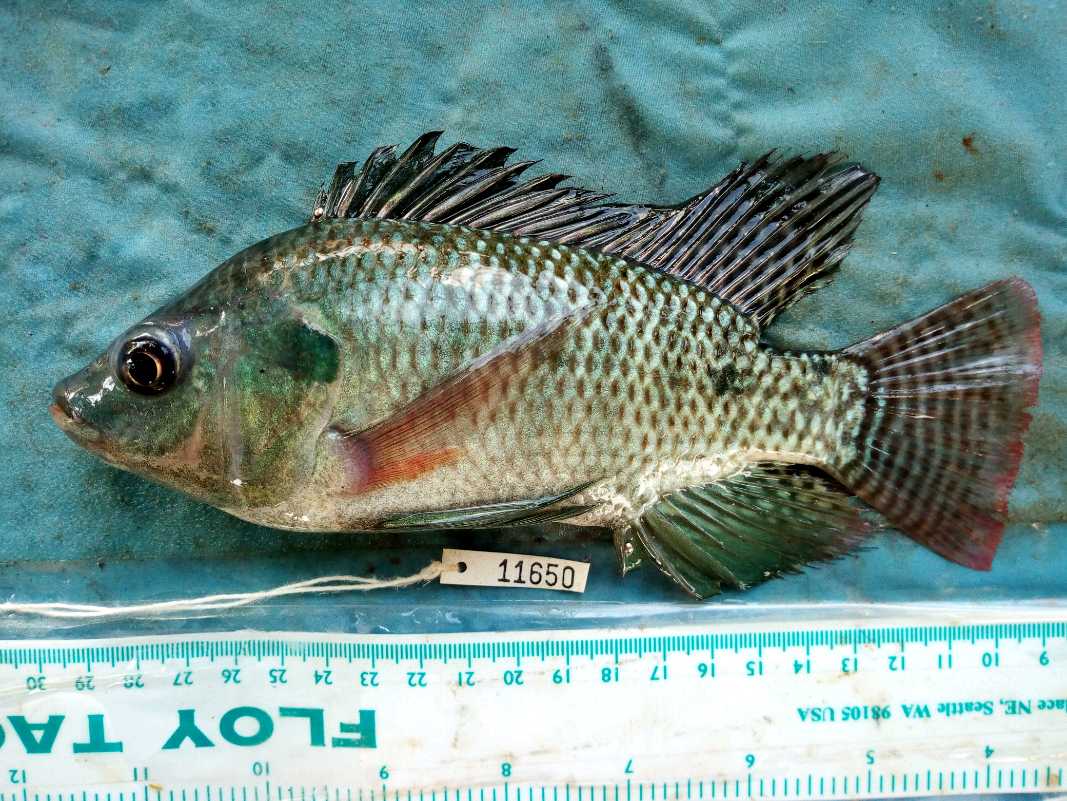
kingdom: Animalia
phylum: Chordata
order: Perciformes
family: Cichlidae
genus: Oreochromis
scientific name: Oreochromis niloticus
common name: Nile tilapia
